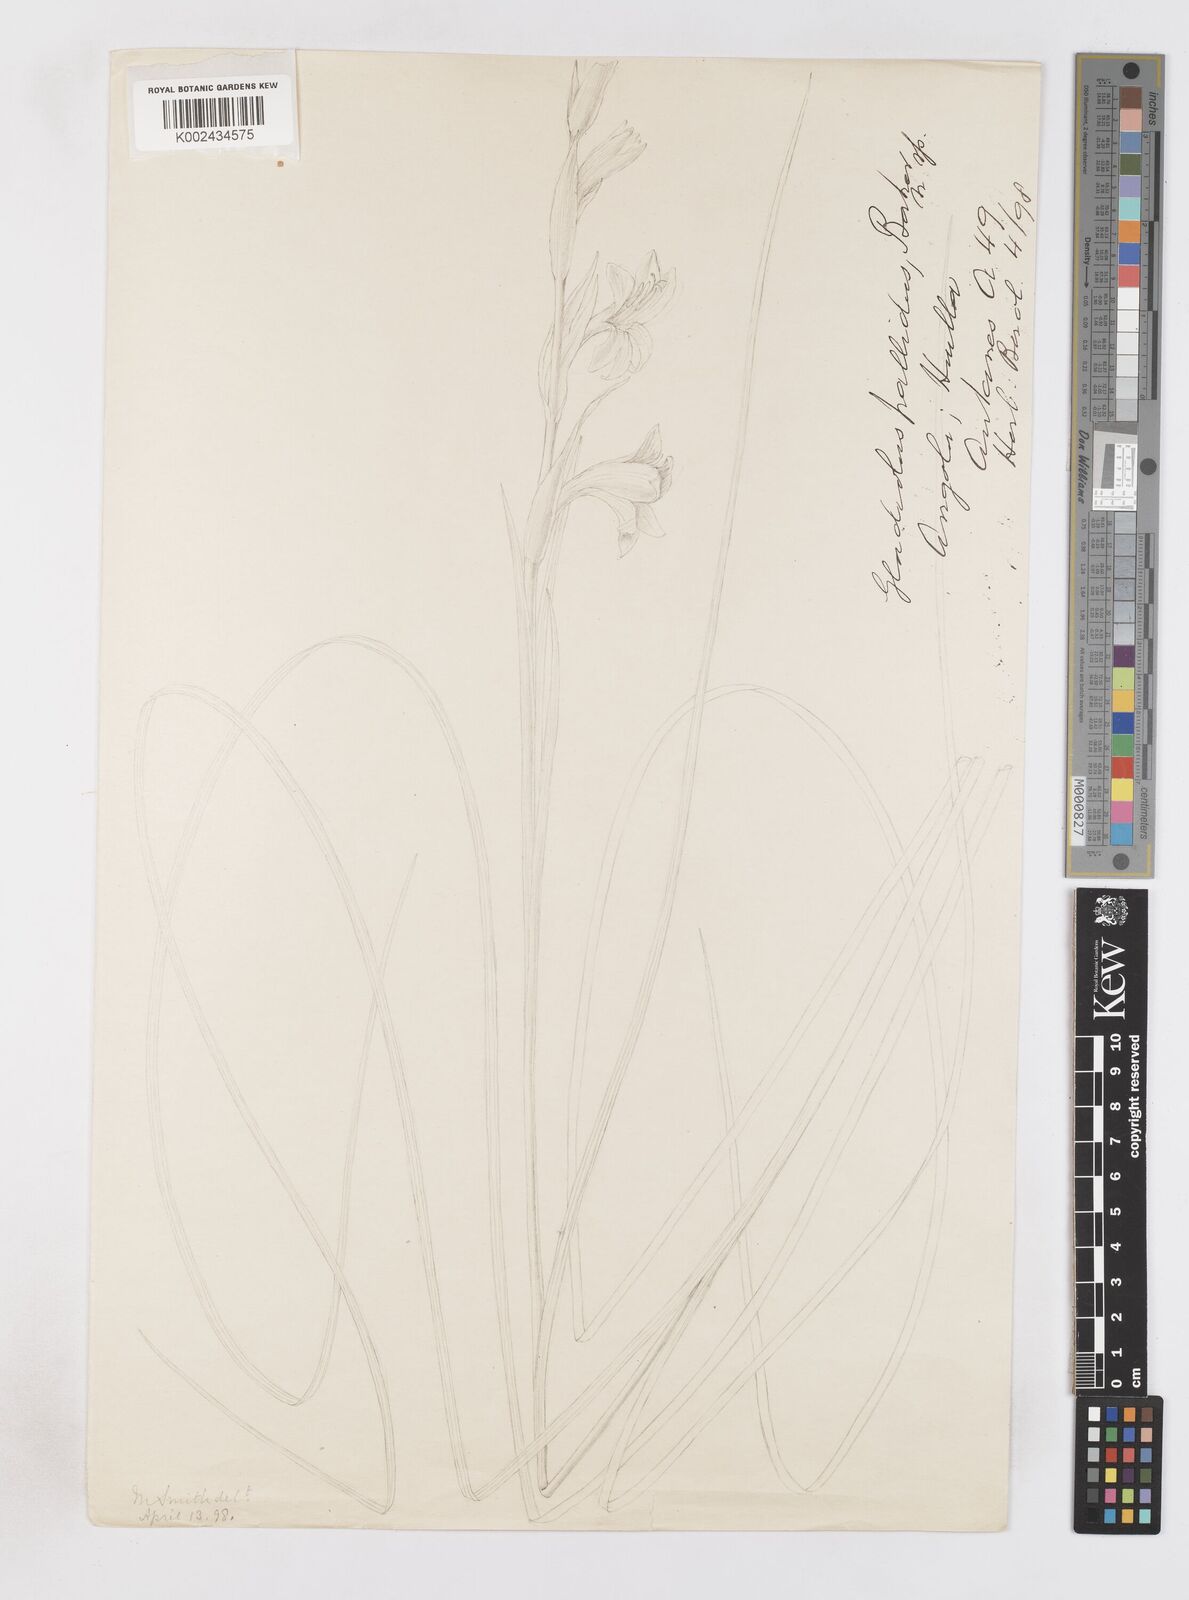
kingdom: Plantae
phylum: Tracheophyta
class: Liliopsida
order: Asparagales
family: Iridaceae
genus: Gladiolus
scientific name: Gladiolus baumii
